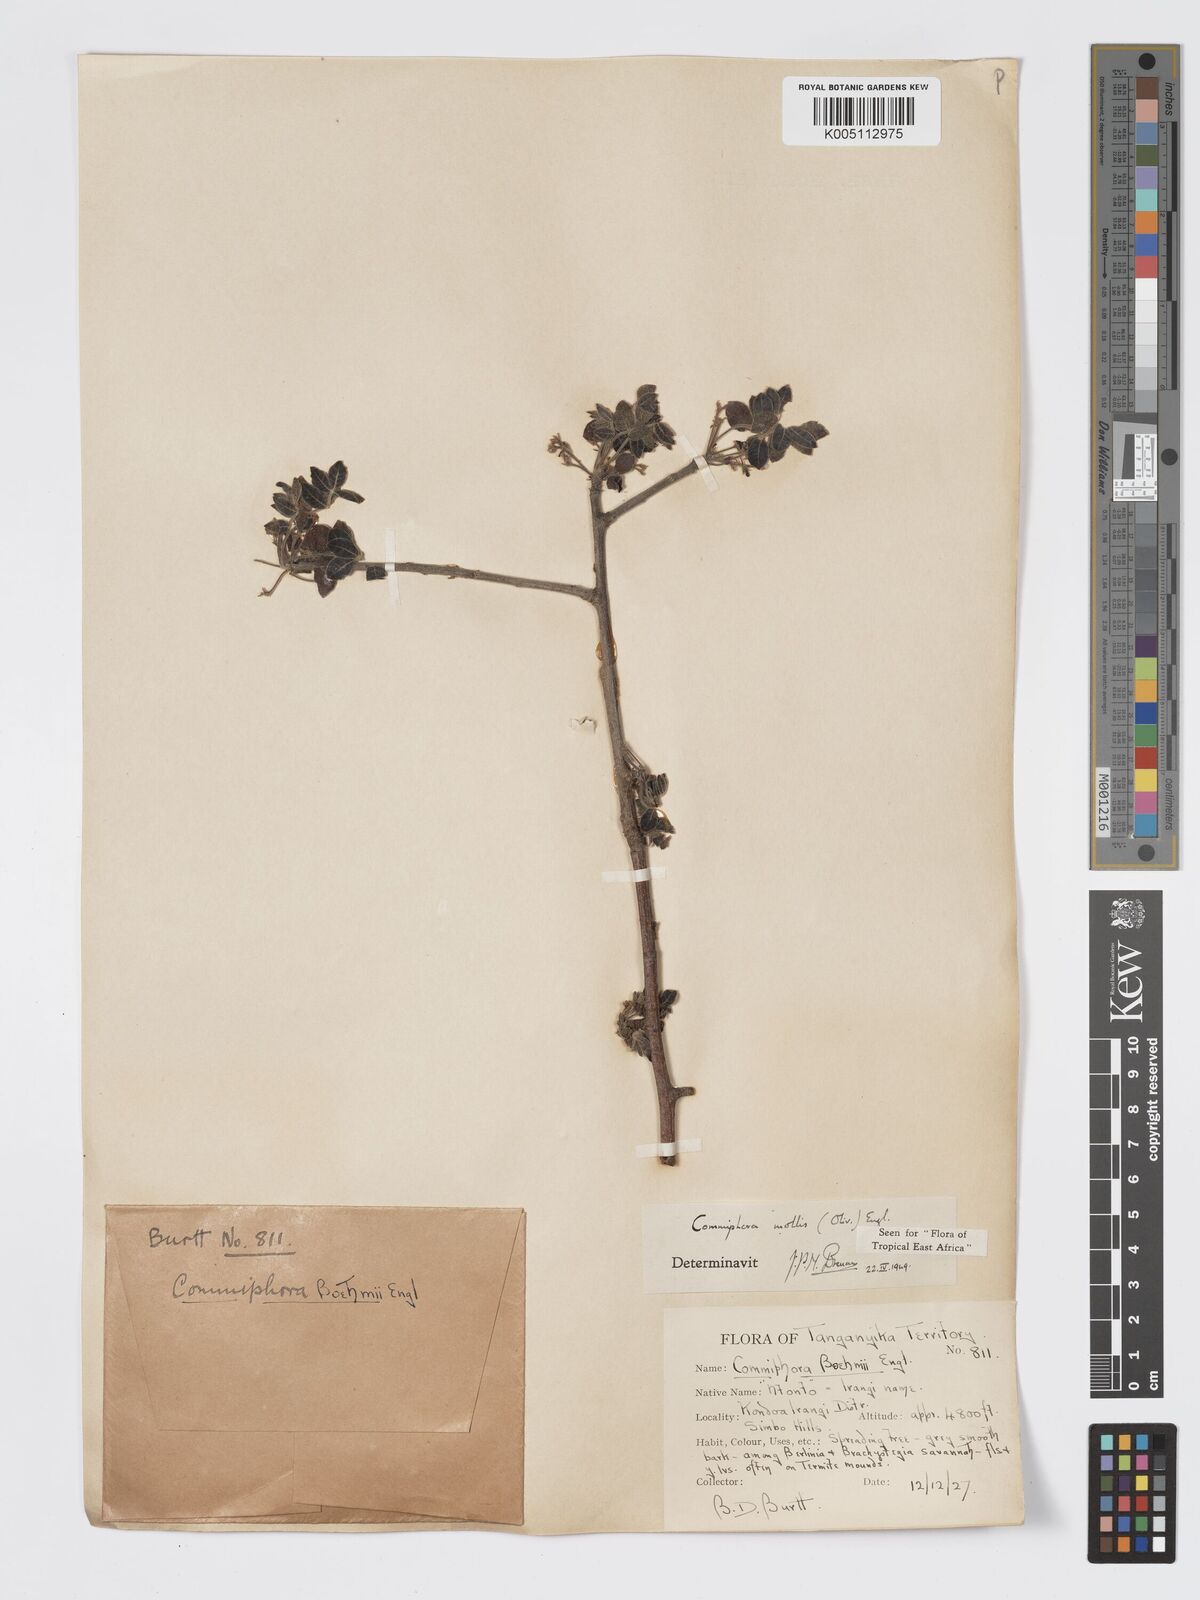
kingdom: Plantae
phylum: Tracheophyta
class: Magnoliopsida
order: Sapindales
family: Burseraceae
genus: Commiphora
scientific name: Commiphora
